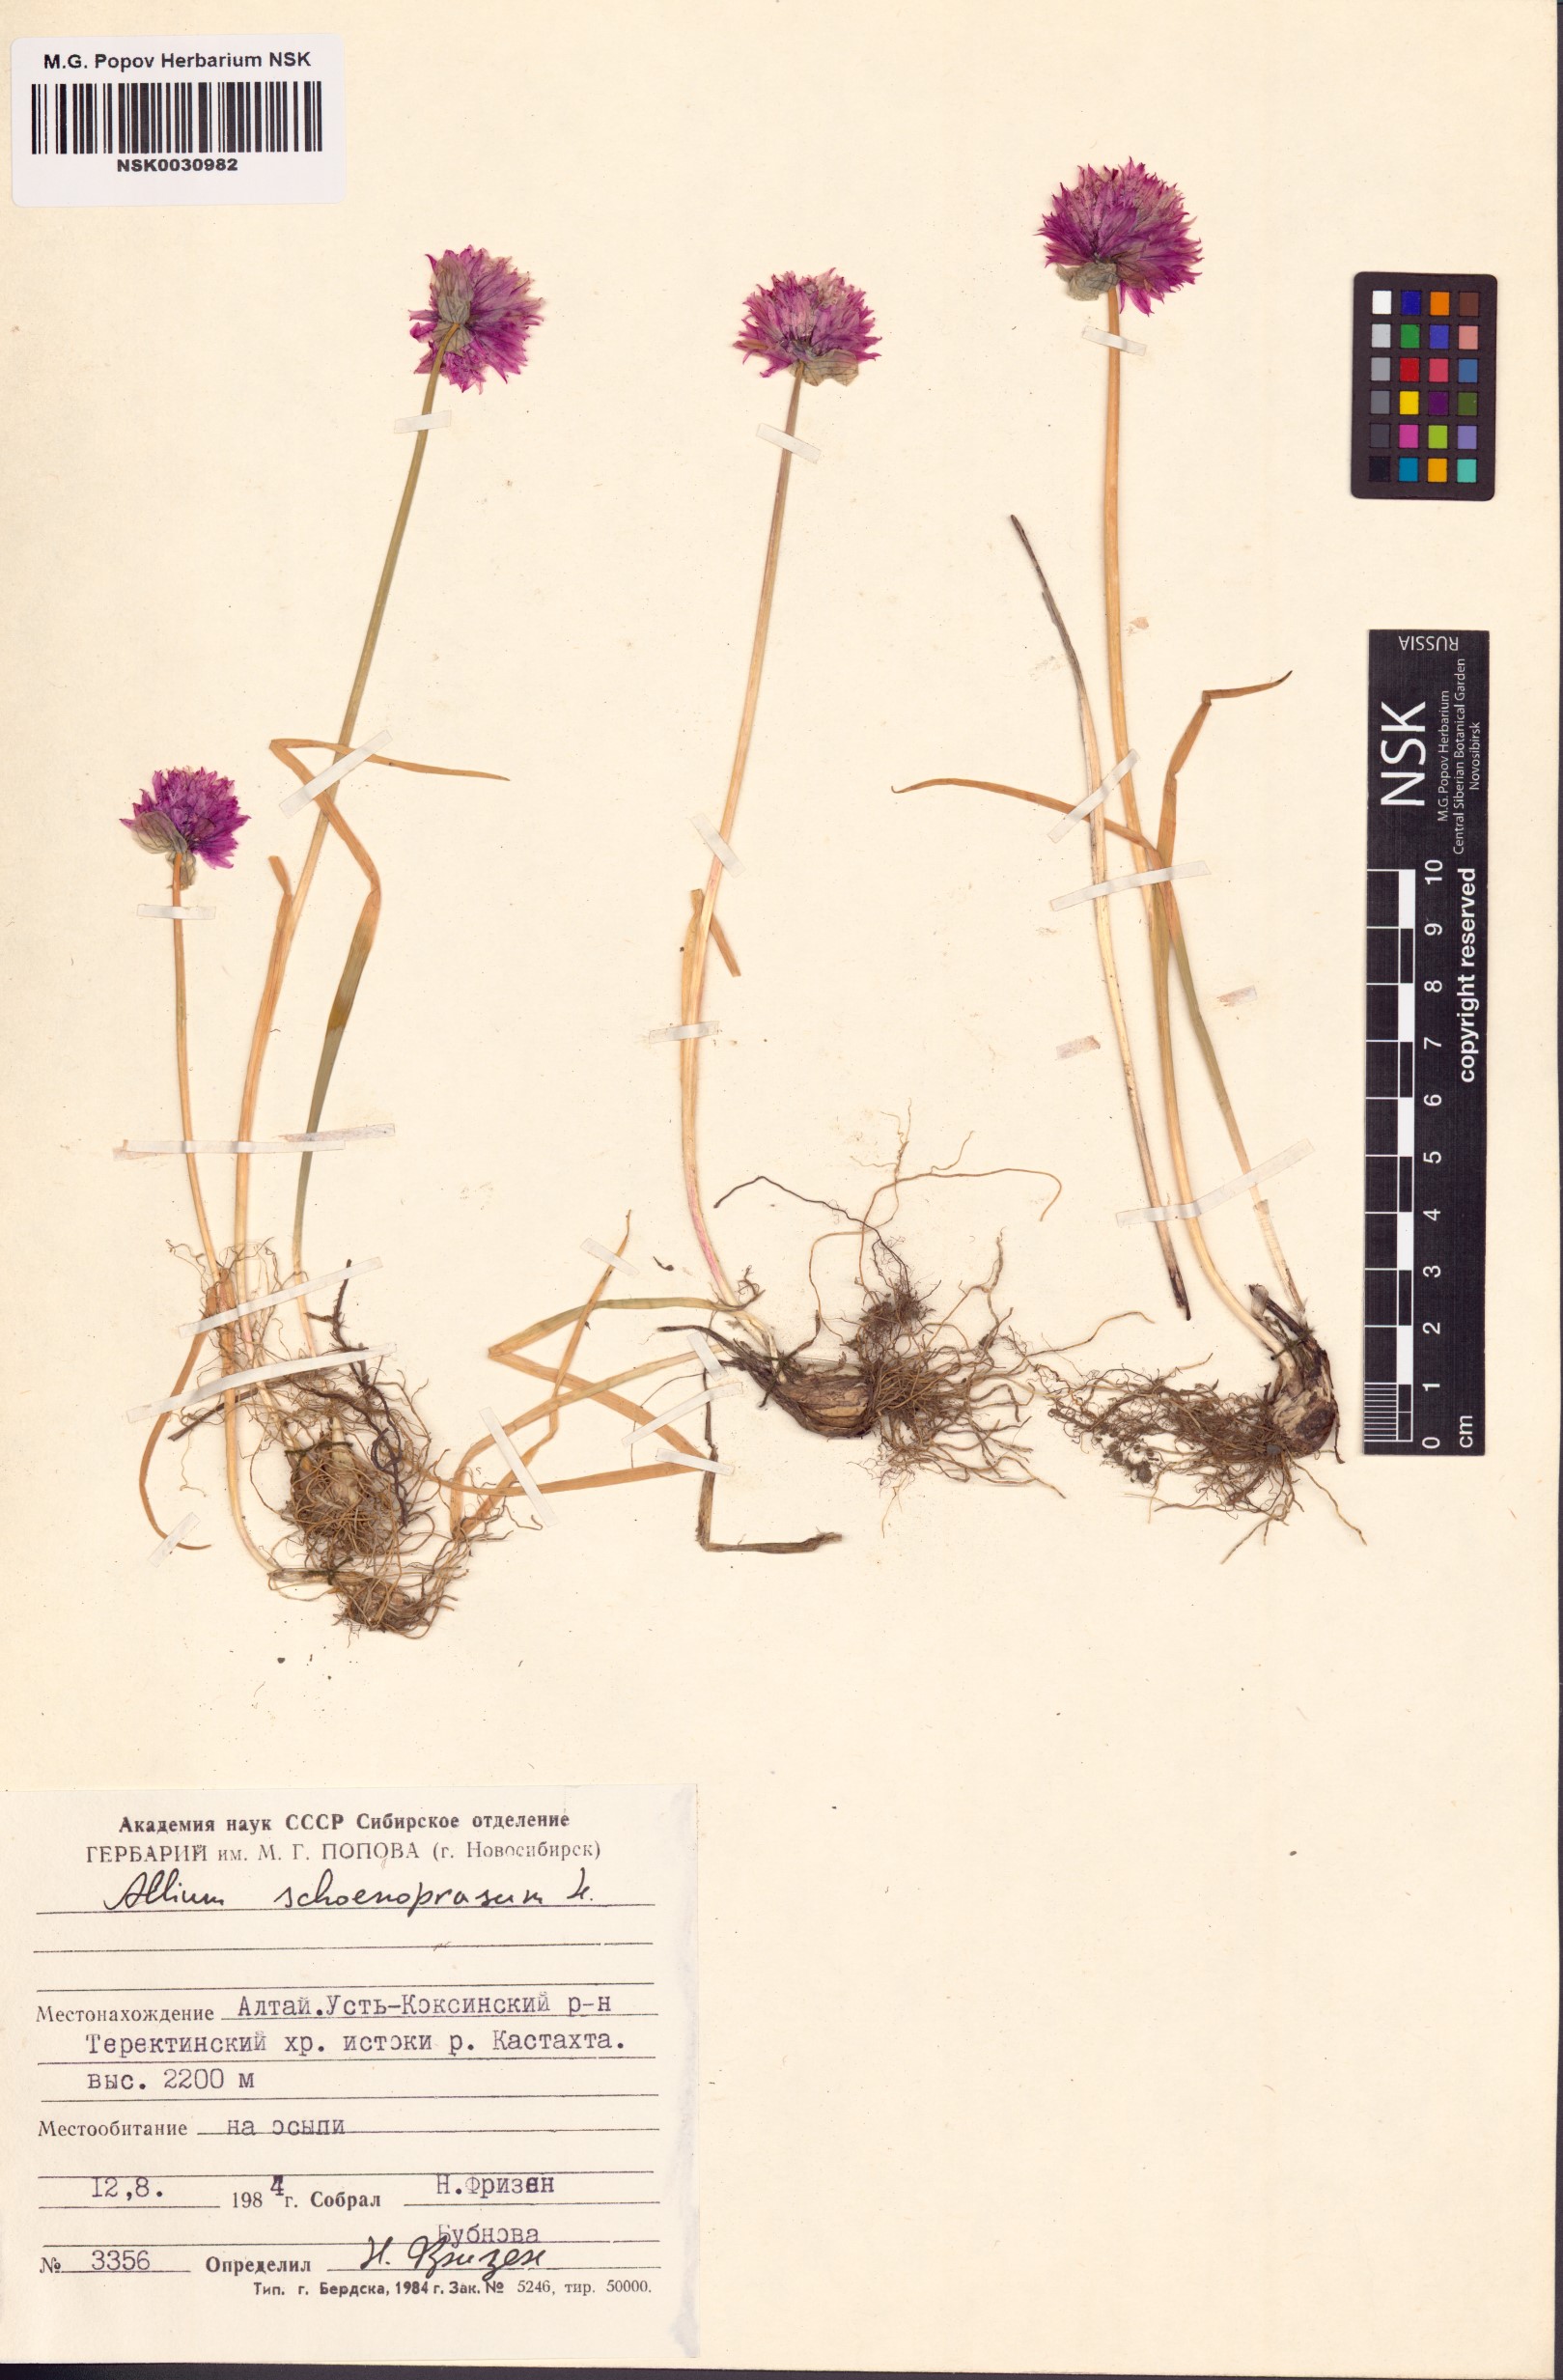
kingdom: Plantae
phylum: Tracheophyta
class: Liliopsida
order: Asparagales
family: Amaryllidaceae
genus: Allium
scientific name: Allium schoenoprasum
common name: Chives
